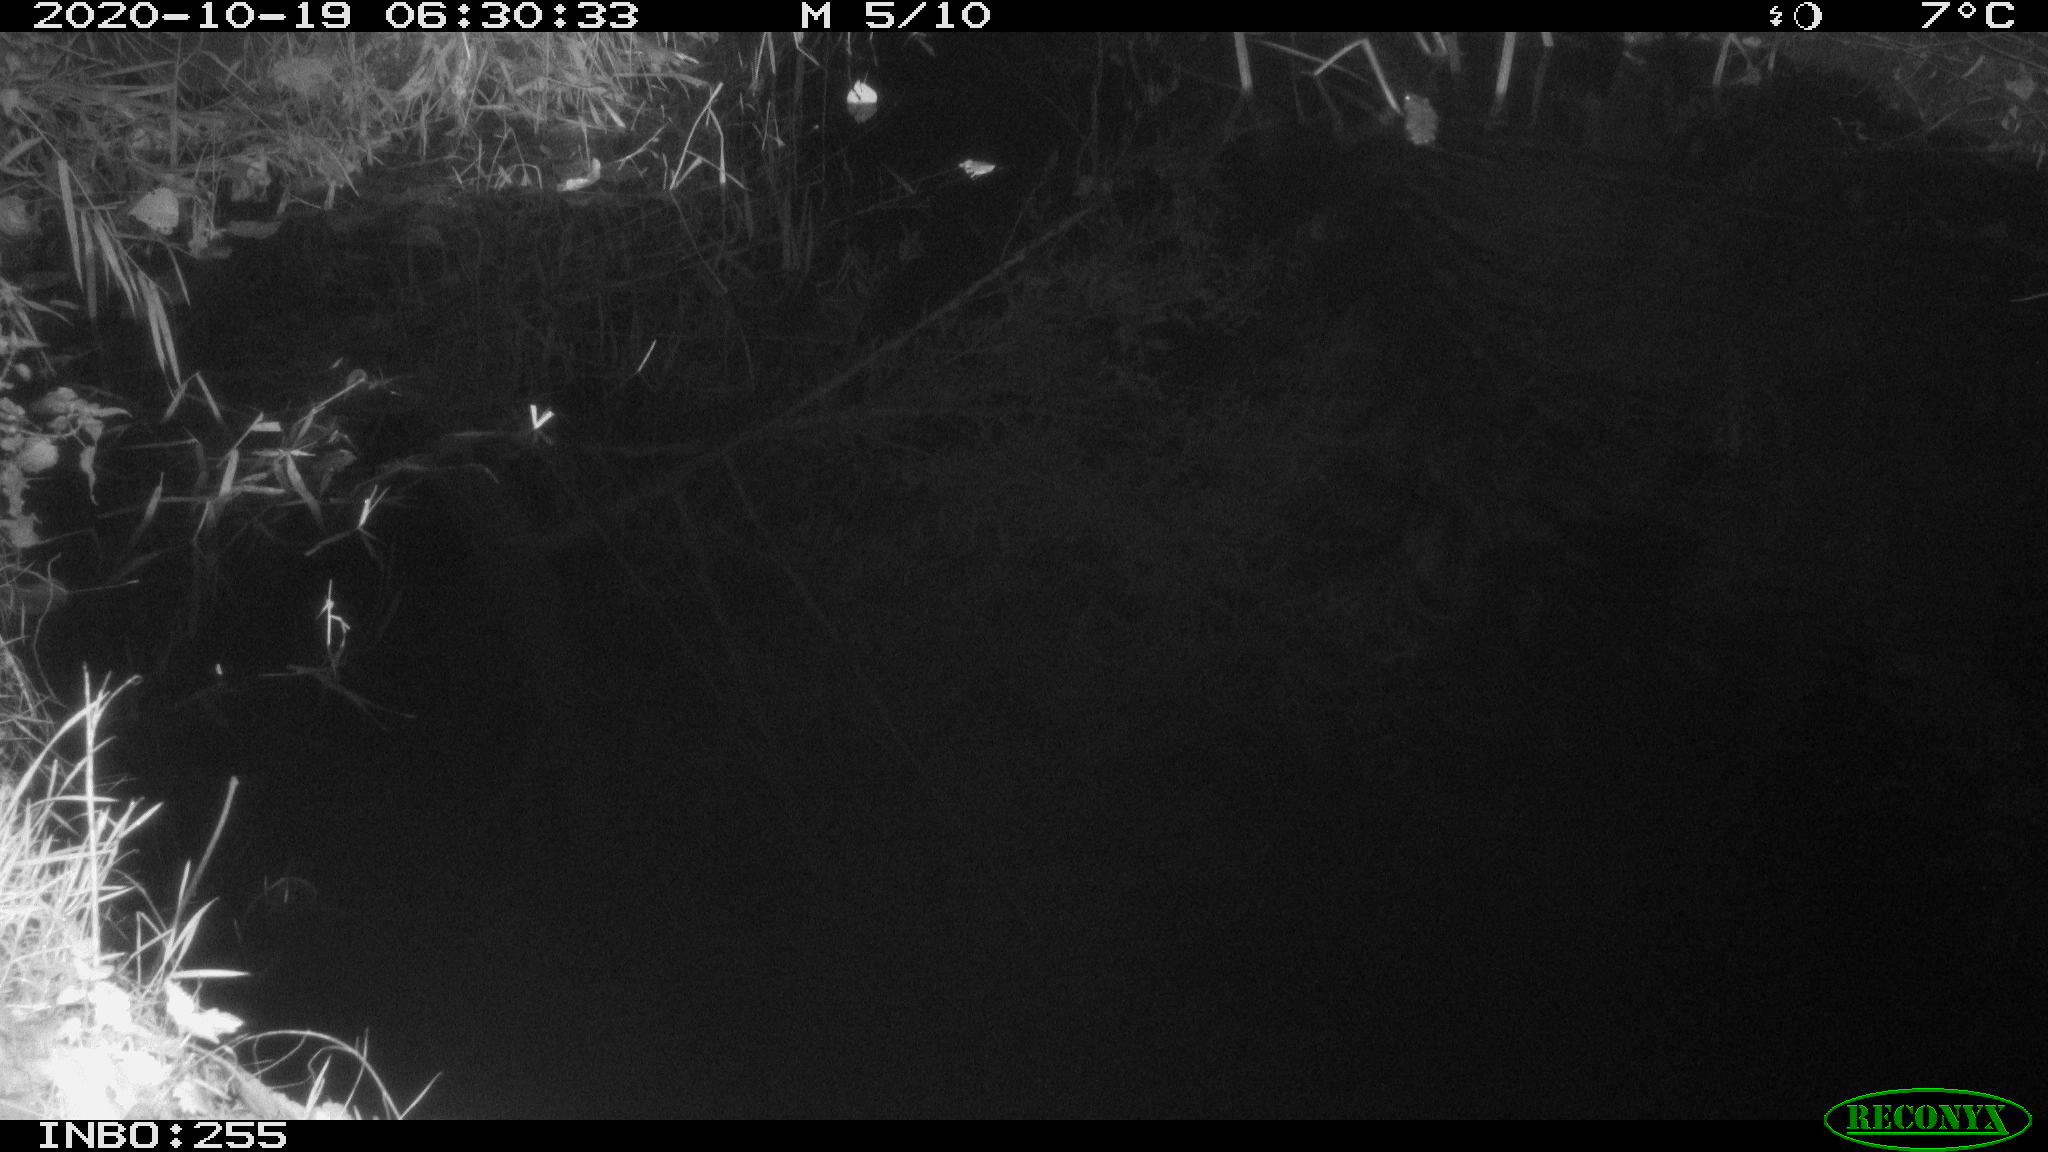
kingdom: Animalia
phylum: Chordata
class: Mammalia
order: Rodentia
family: Muridae
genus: Rattus
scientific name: Rattus norvegicus
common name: Brown rat
